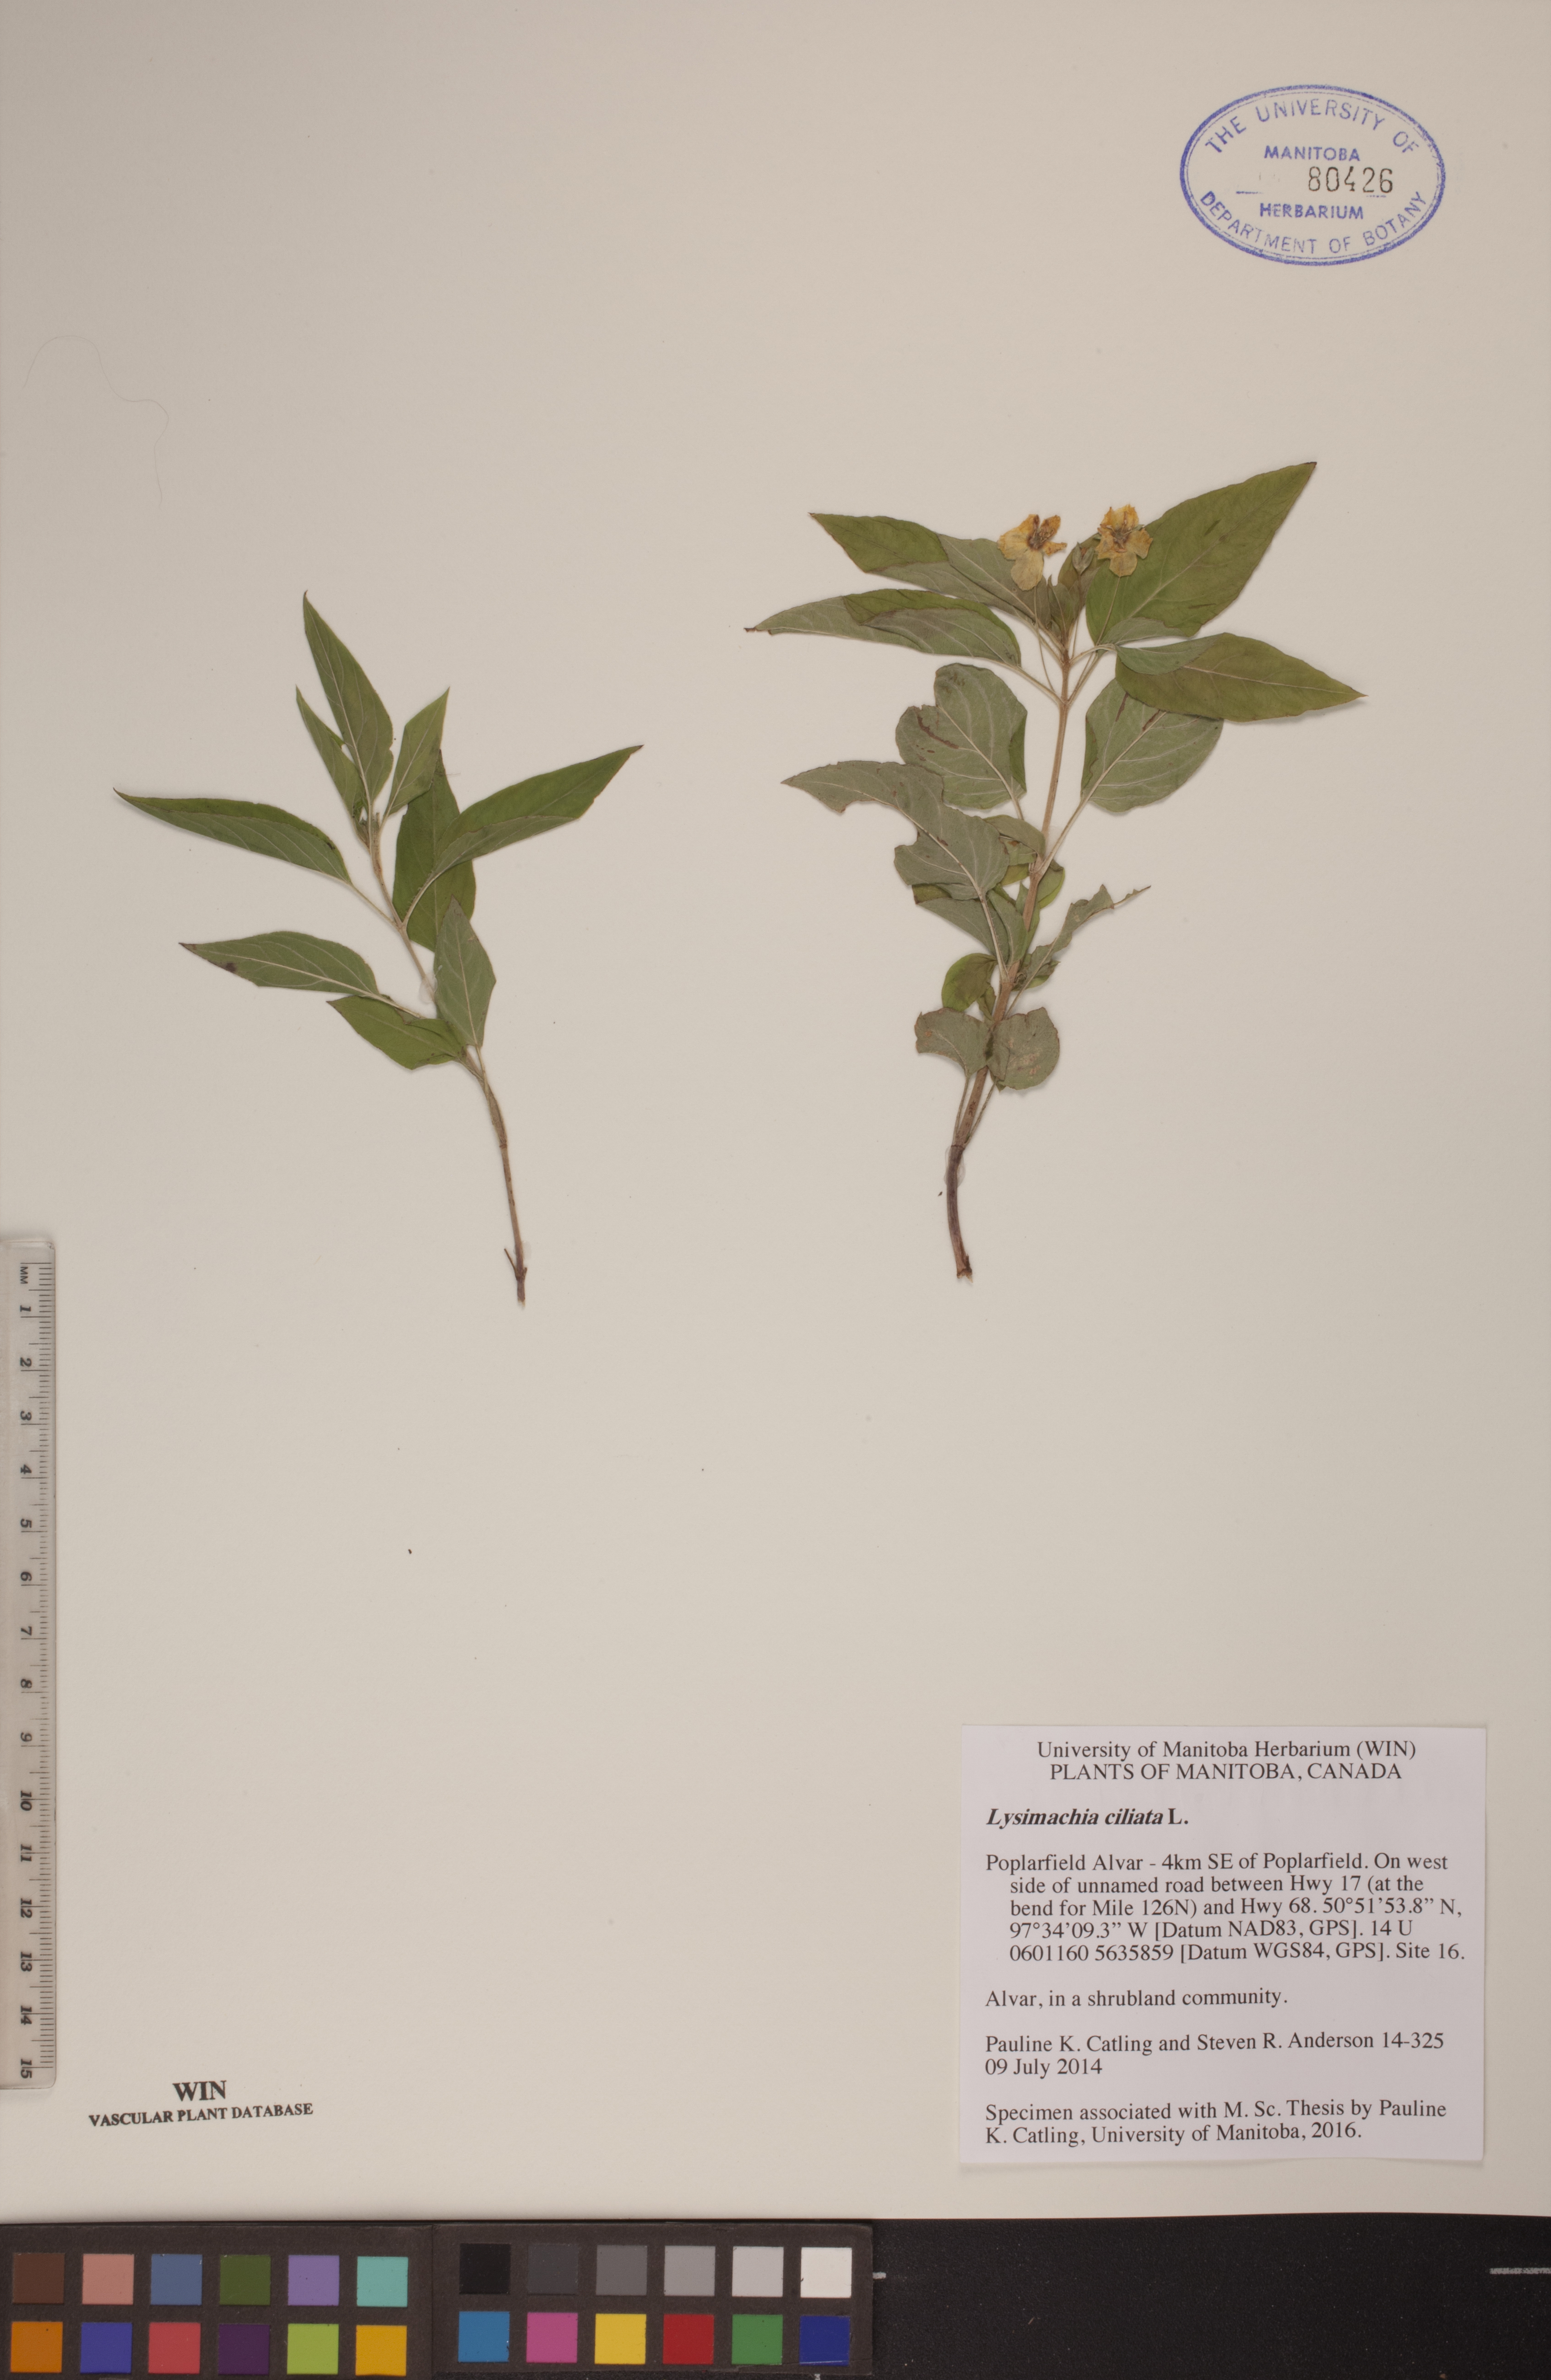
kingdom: Plantae
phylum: Tracheophyta
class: Magnoliopsida
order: Ericales
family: Primulaceae
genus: Lysimachia
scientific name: Lysimachia ciliata
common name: Fringed loosestrife
